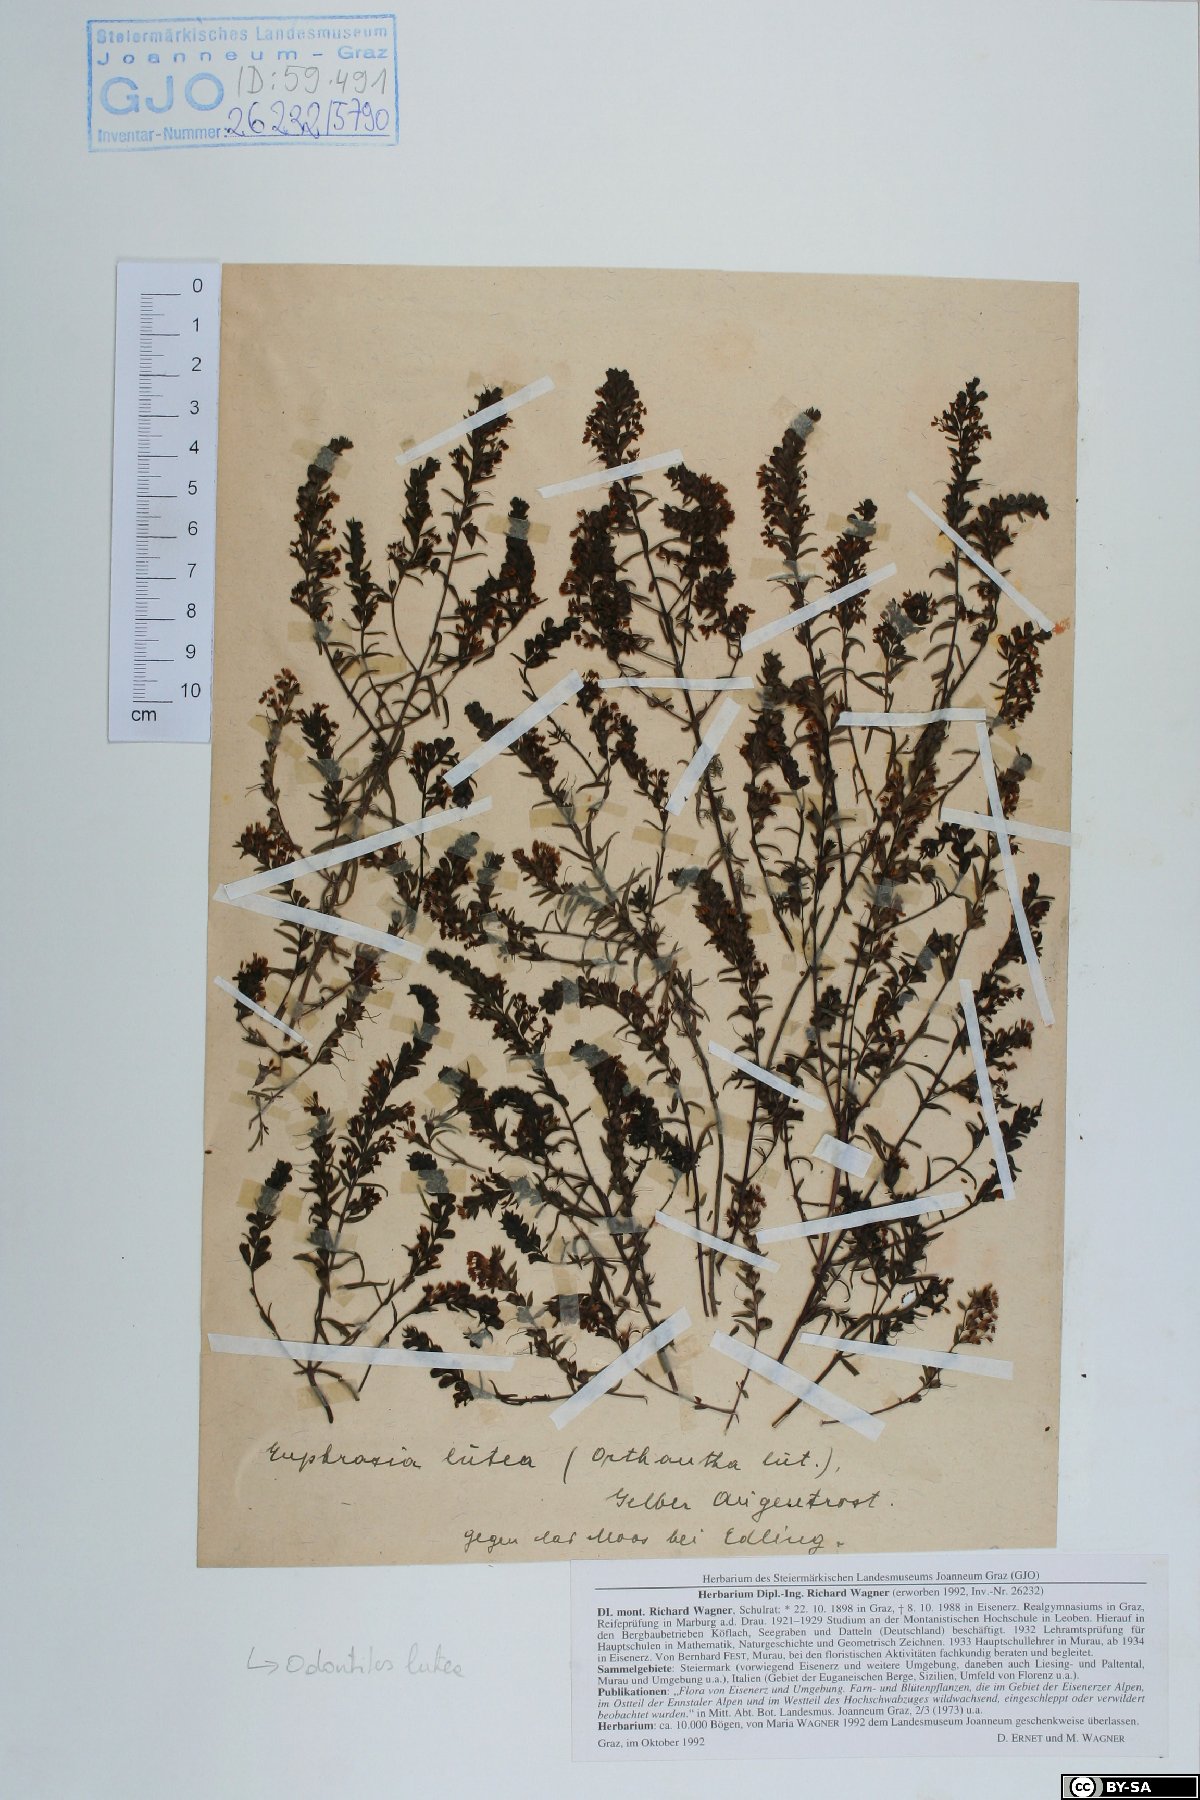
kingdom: Plantae
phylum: Tracheophyta
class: Magnoliopsida
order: Lamiales
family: Orobanchaceae
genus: Odontites
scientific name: Odontites luteus
